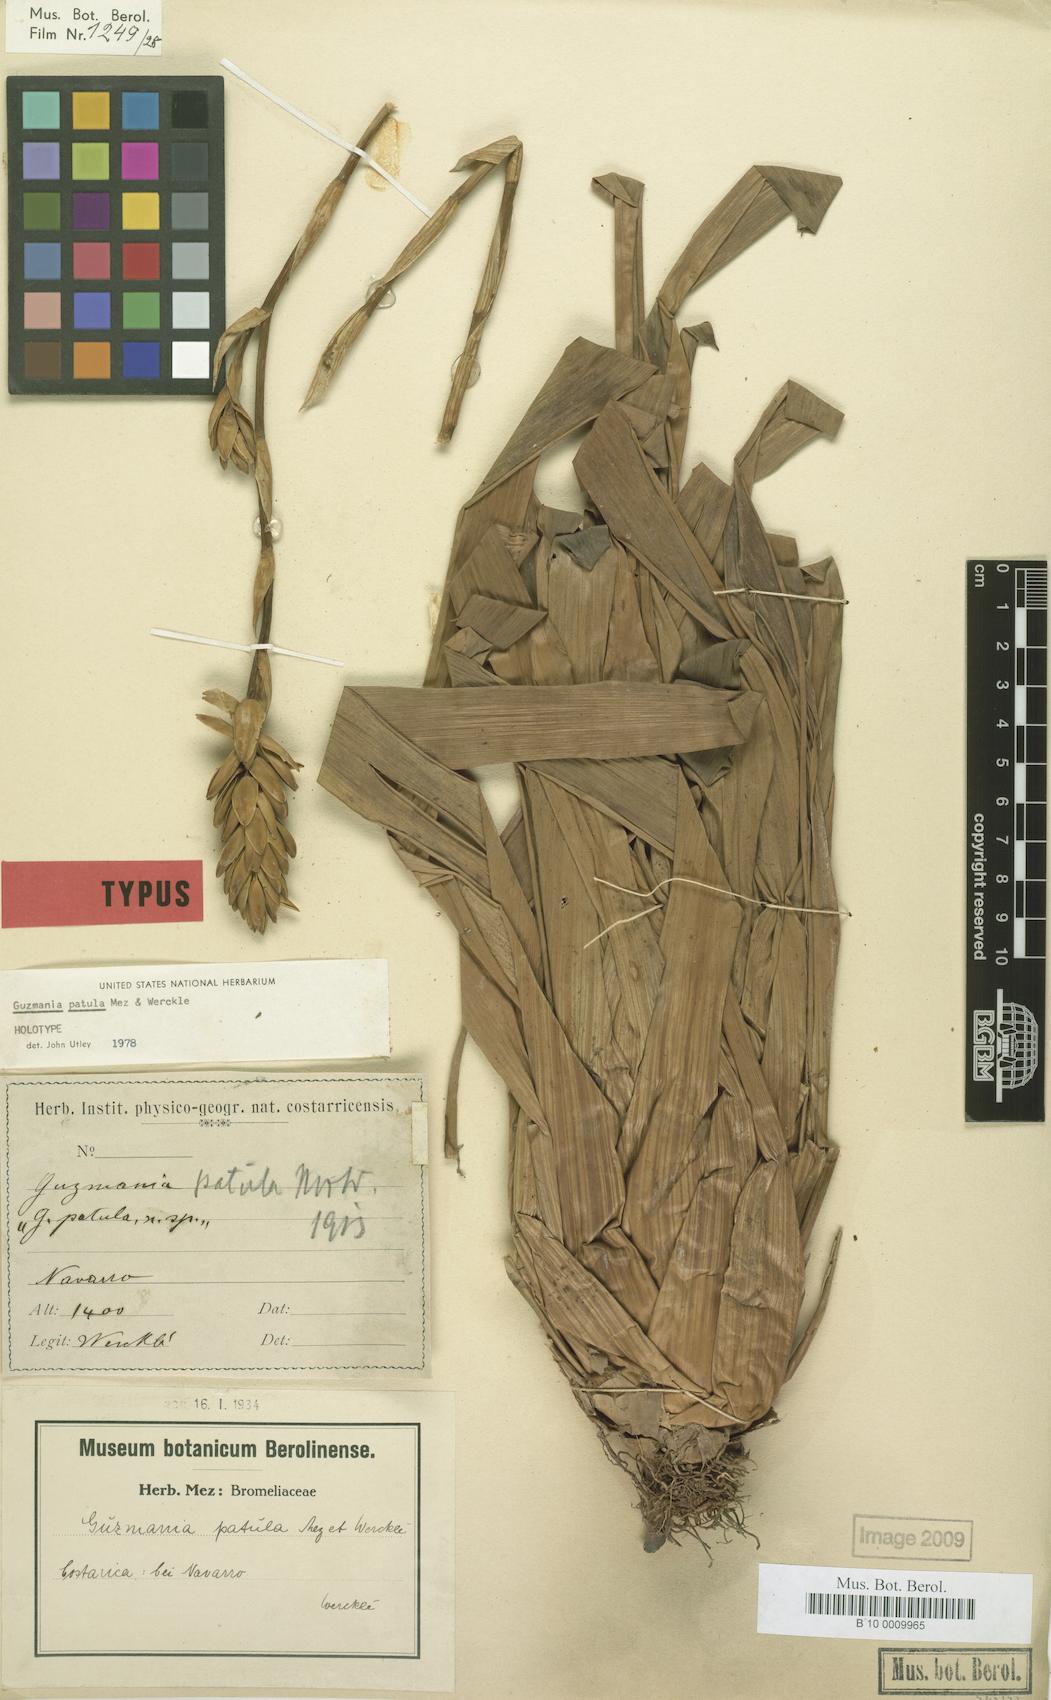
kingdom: Plantae
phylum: Tracheophyta
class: Liliopsida
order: Poales
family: Bromeliaceae
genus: Guzmania
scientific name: Guzmania patula
